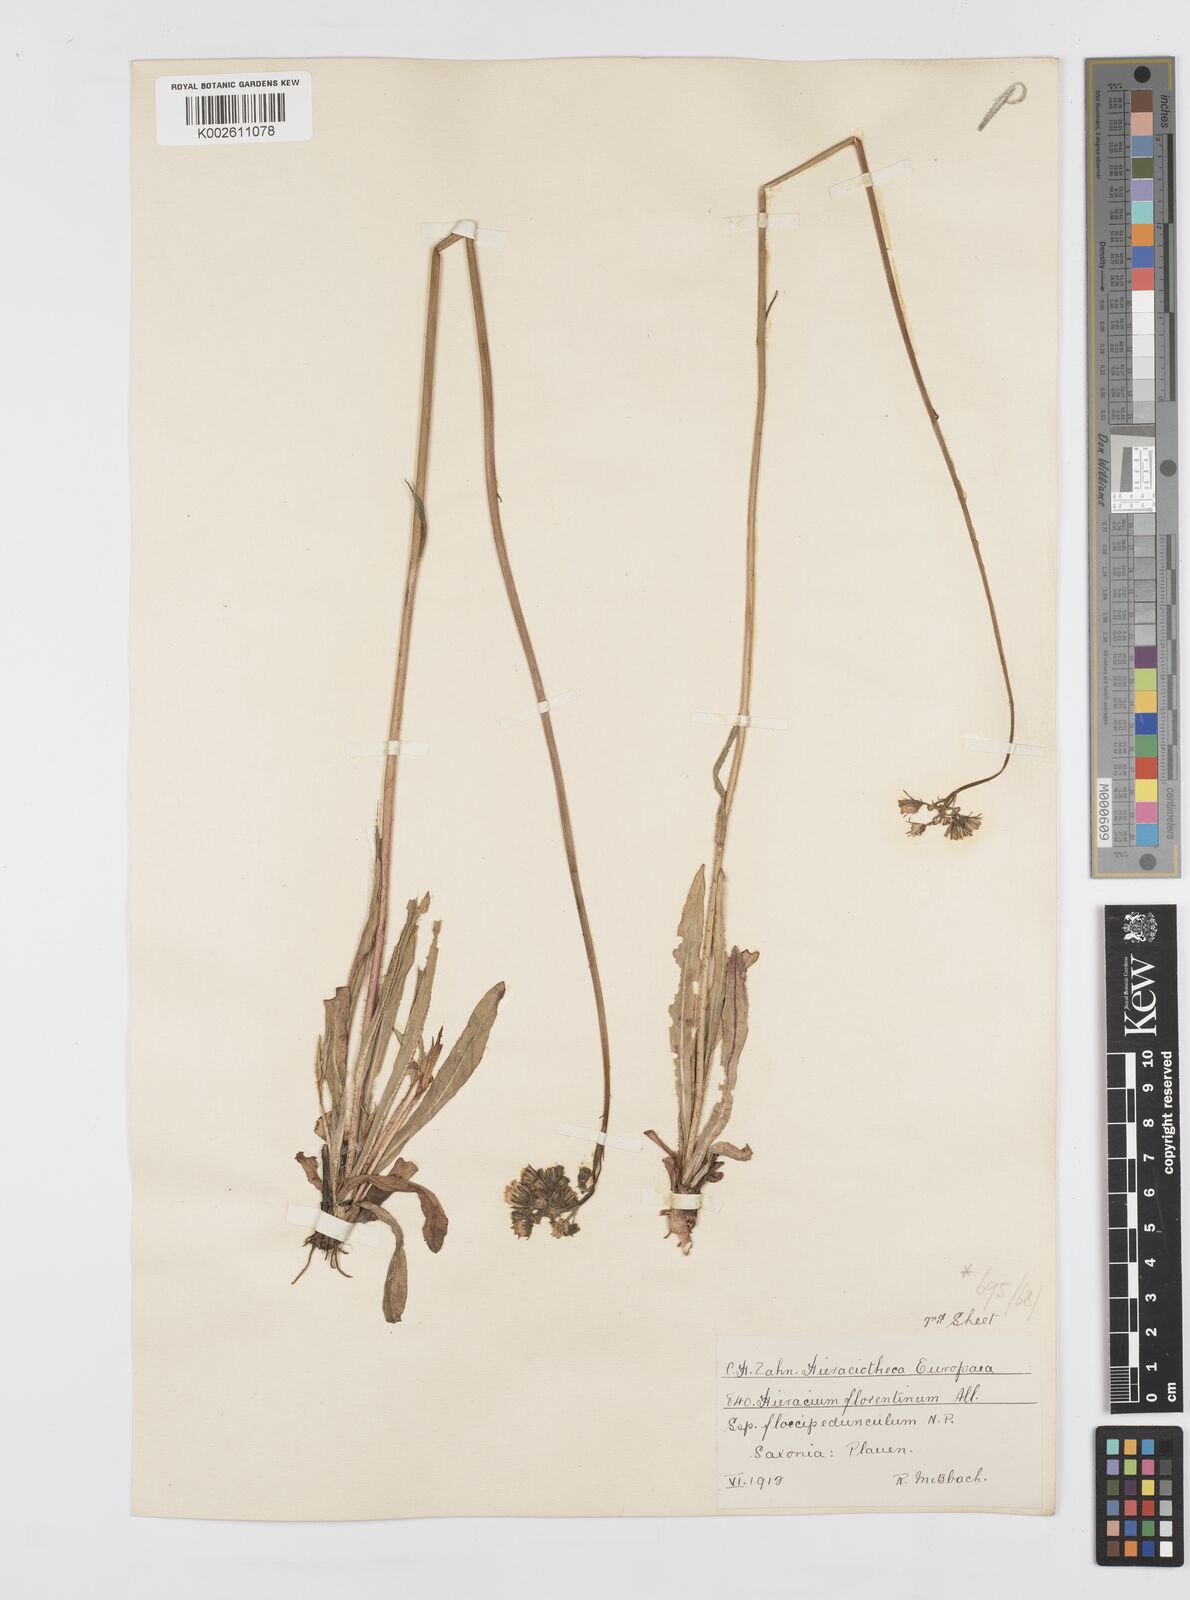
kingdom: Plantae
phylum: Tracheophyta
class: Magnoliopsida
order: Asterales
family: Asteraceae
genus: Pilosella
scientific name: Pilosella piloselloides
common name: Glaucous king-devil
